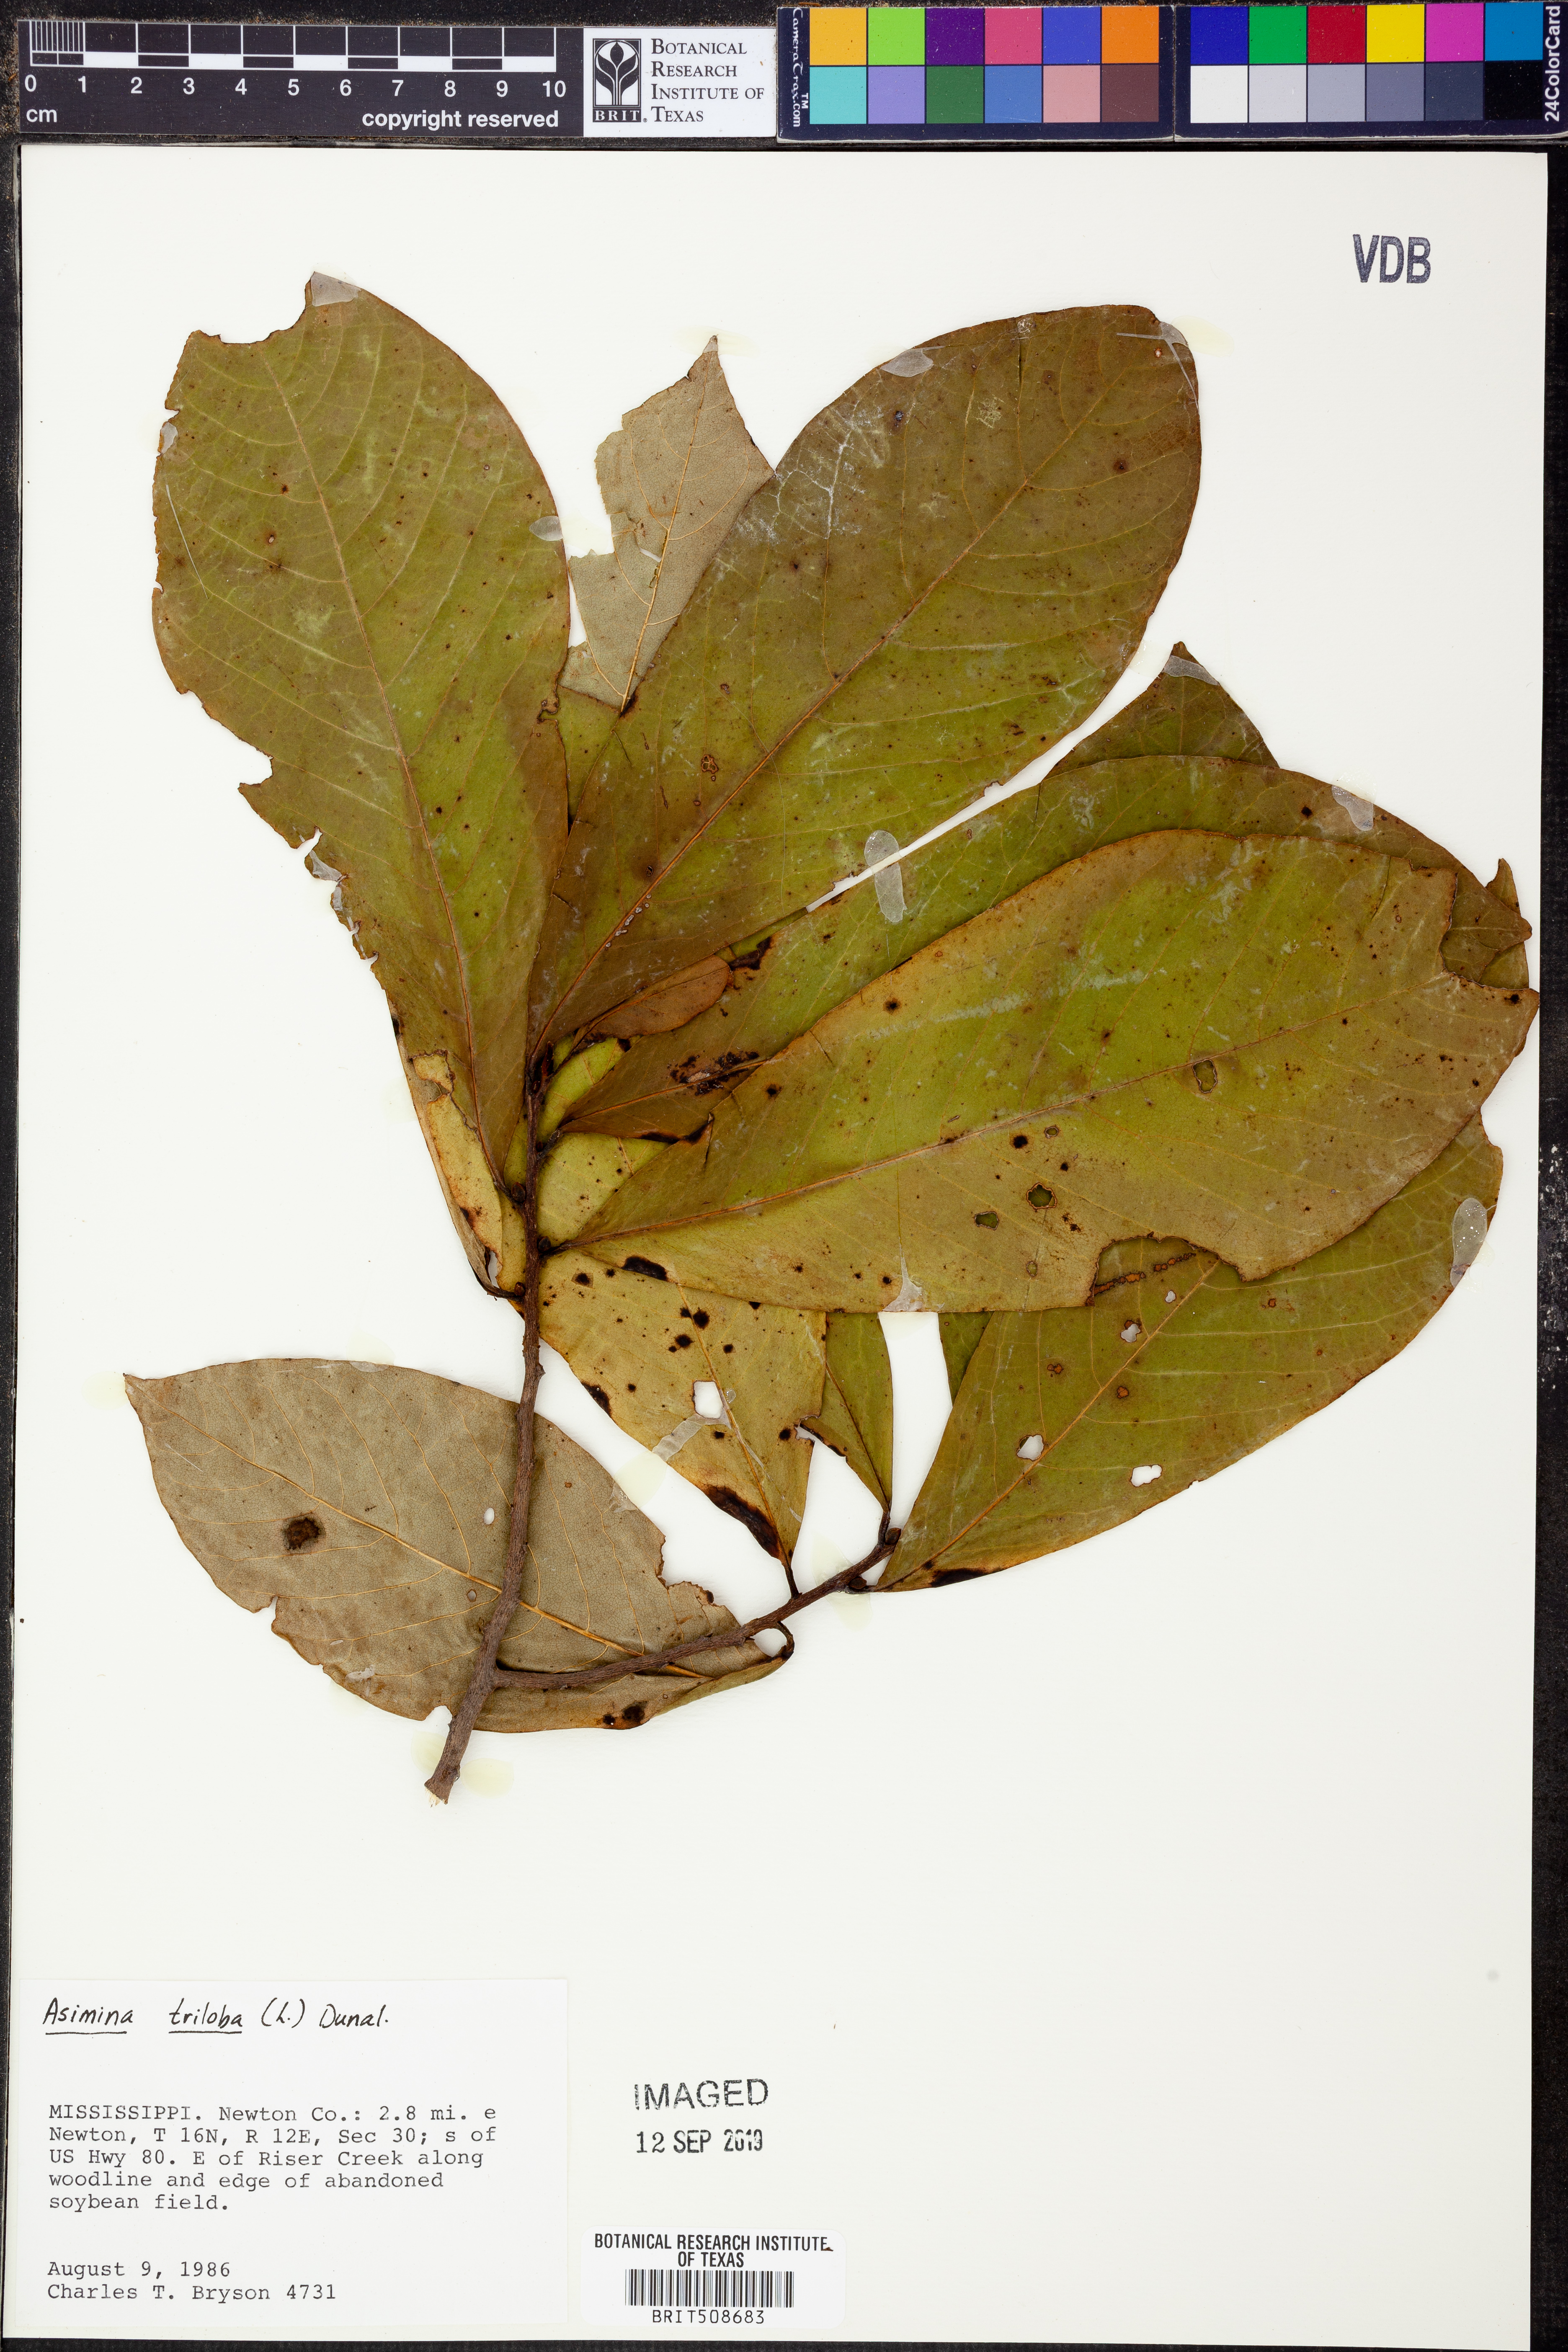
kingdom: Plantae
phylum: Tracheophyta
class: Magnoliopsida
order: Magnoliales
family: Annonaceae
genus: Asimina
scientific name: Asimina triloba
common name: Dog-banana
